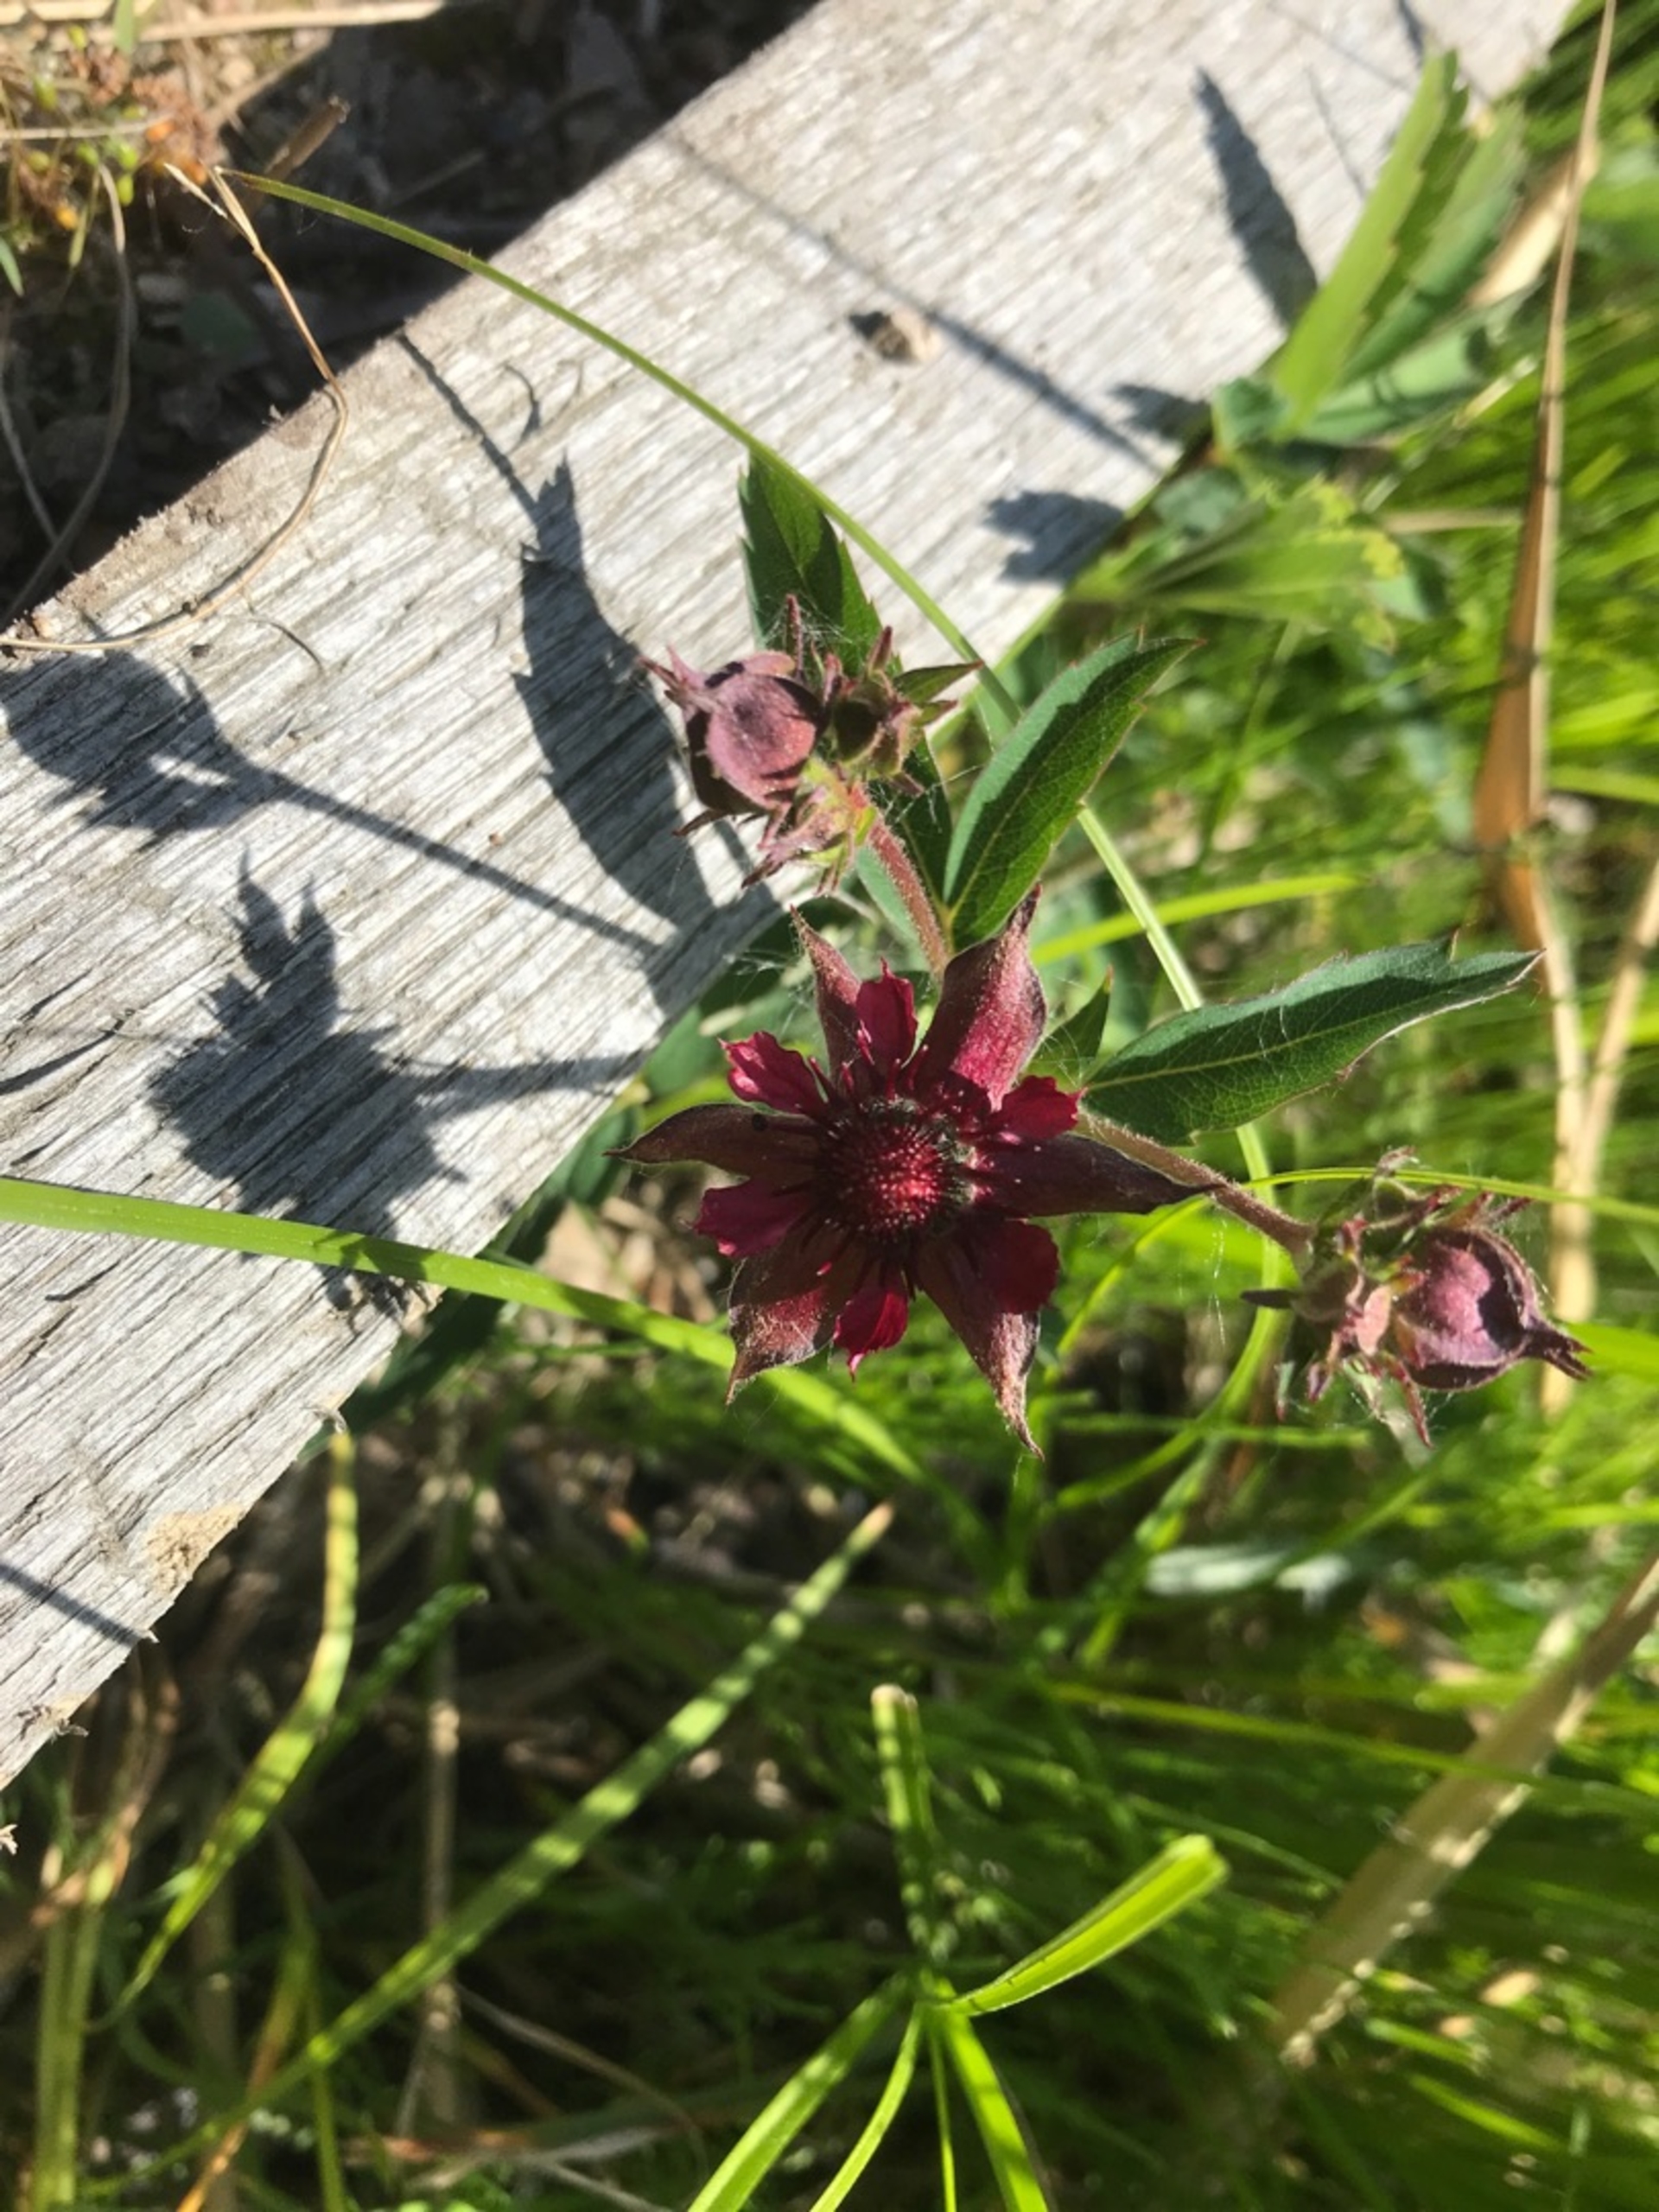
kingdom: Plantae
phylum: Tracheophyta
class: Magnoliopsida
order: Rosales
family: Rosaceae
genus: Comarum
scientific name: Comarum palustre
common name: Kragefod
